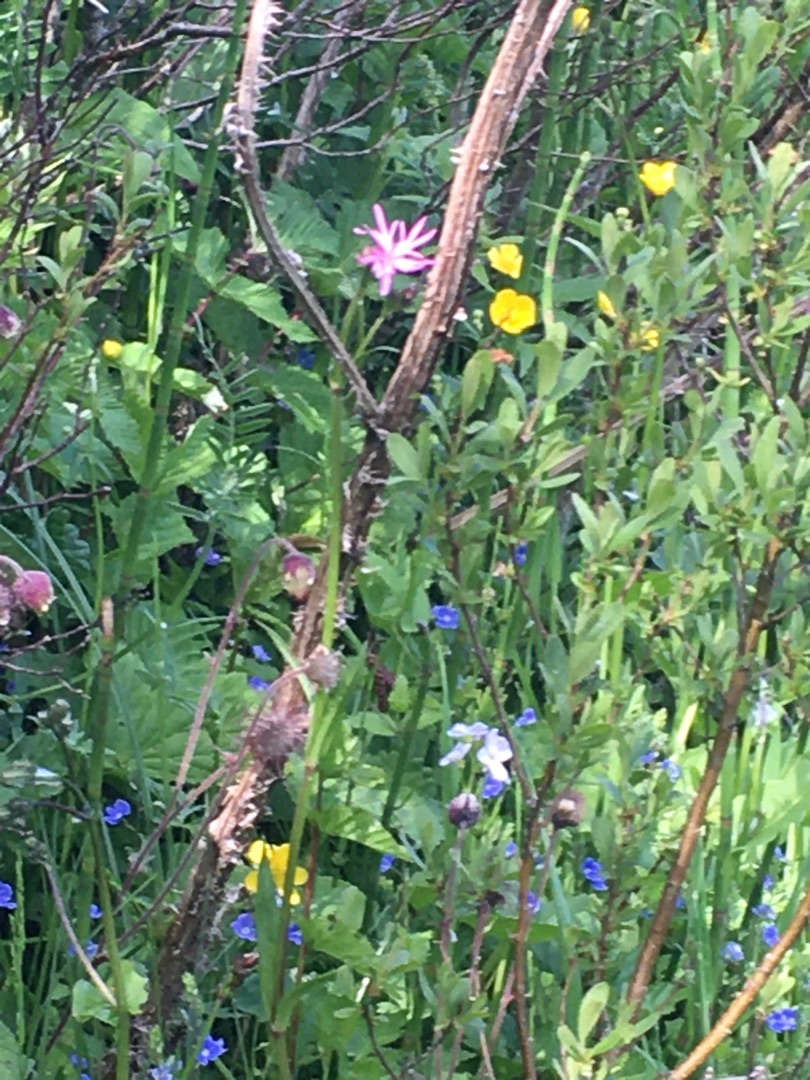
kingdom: Plantae
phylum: Tracheophyta
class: Magnoliopsida
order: Caryophyllales
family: Caryophyllaceae
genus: Silene
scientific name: Silene flos-cuculi
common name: Trævlekrone
